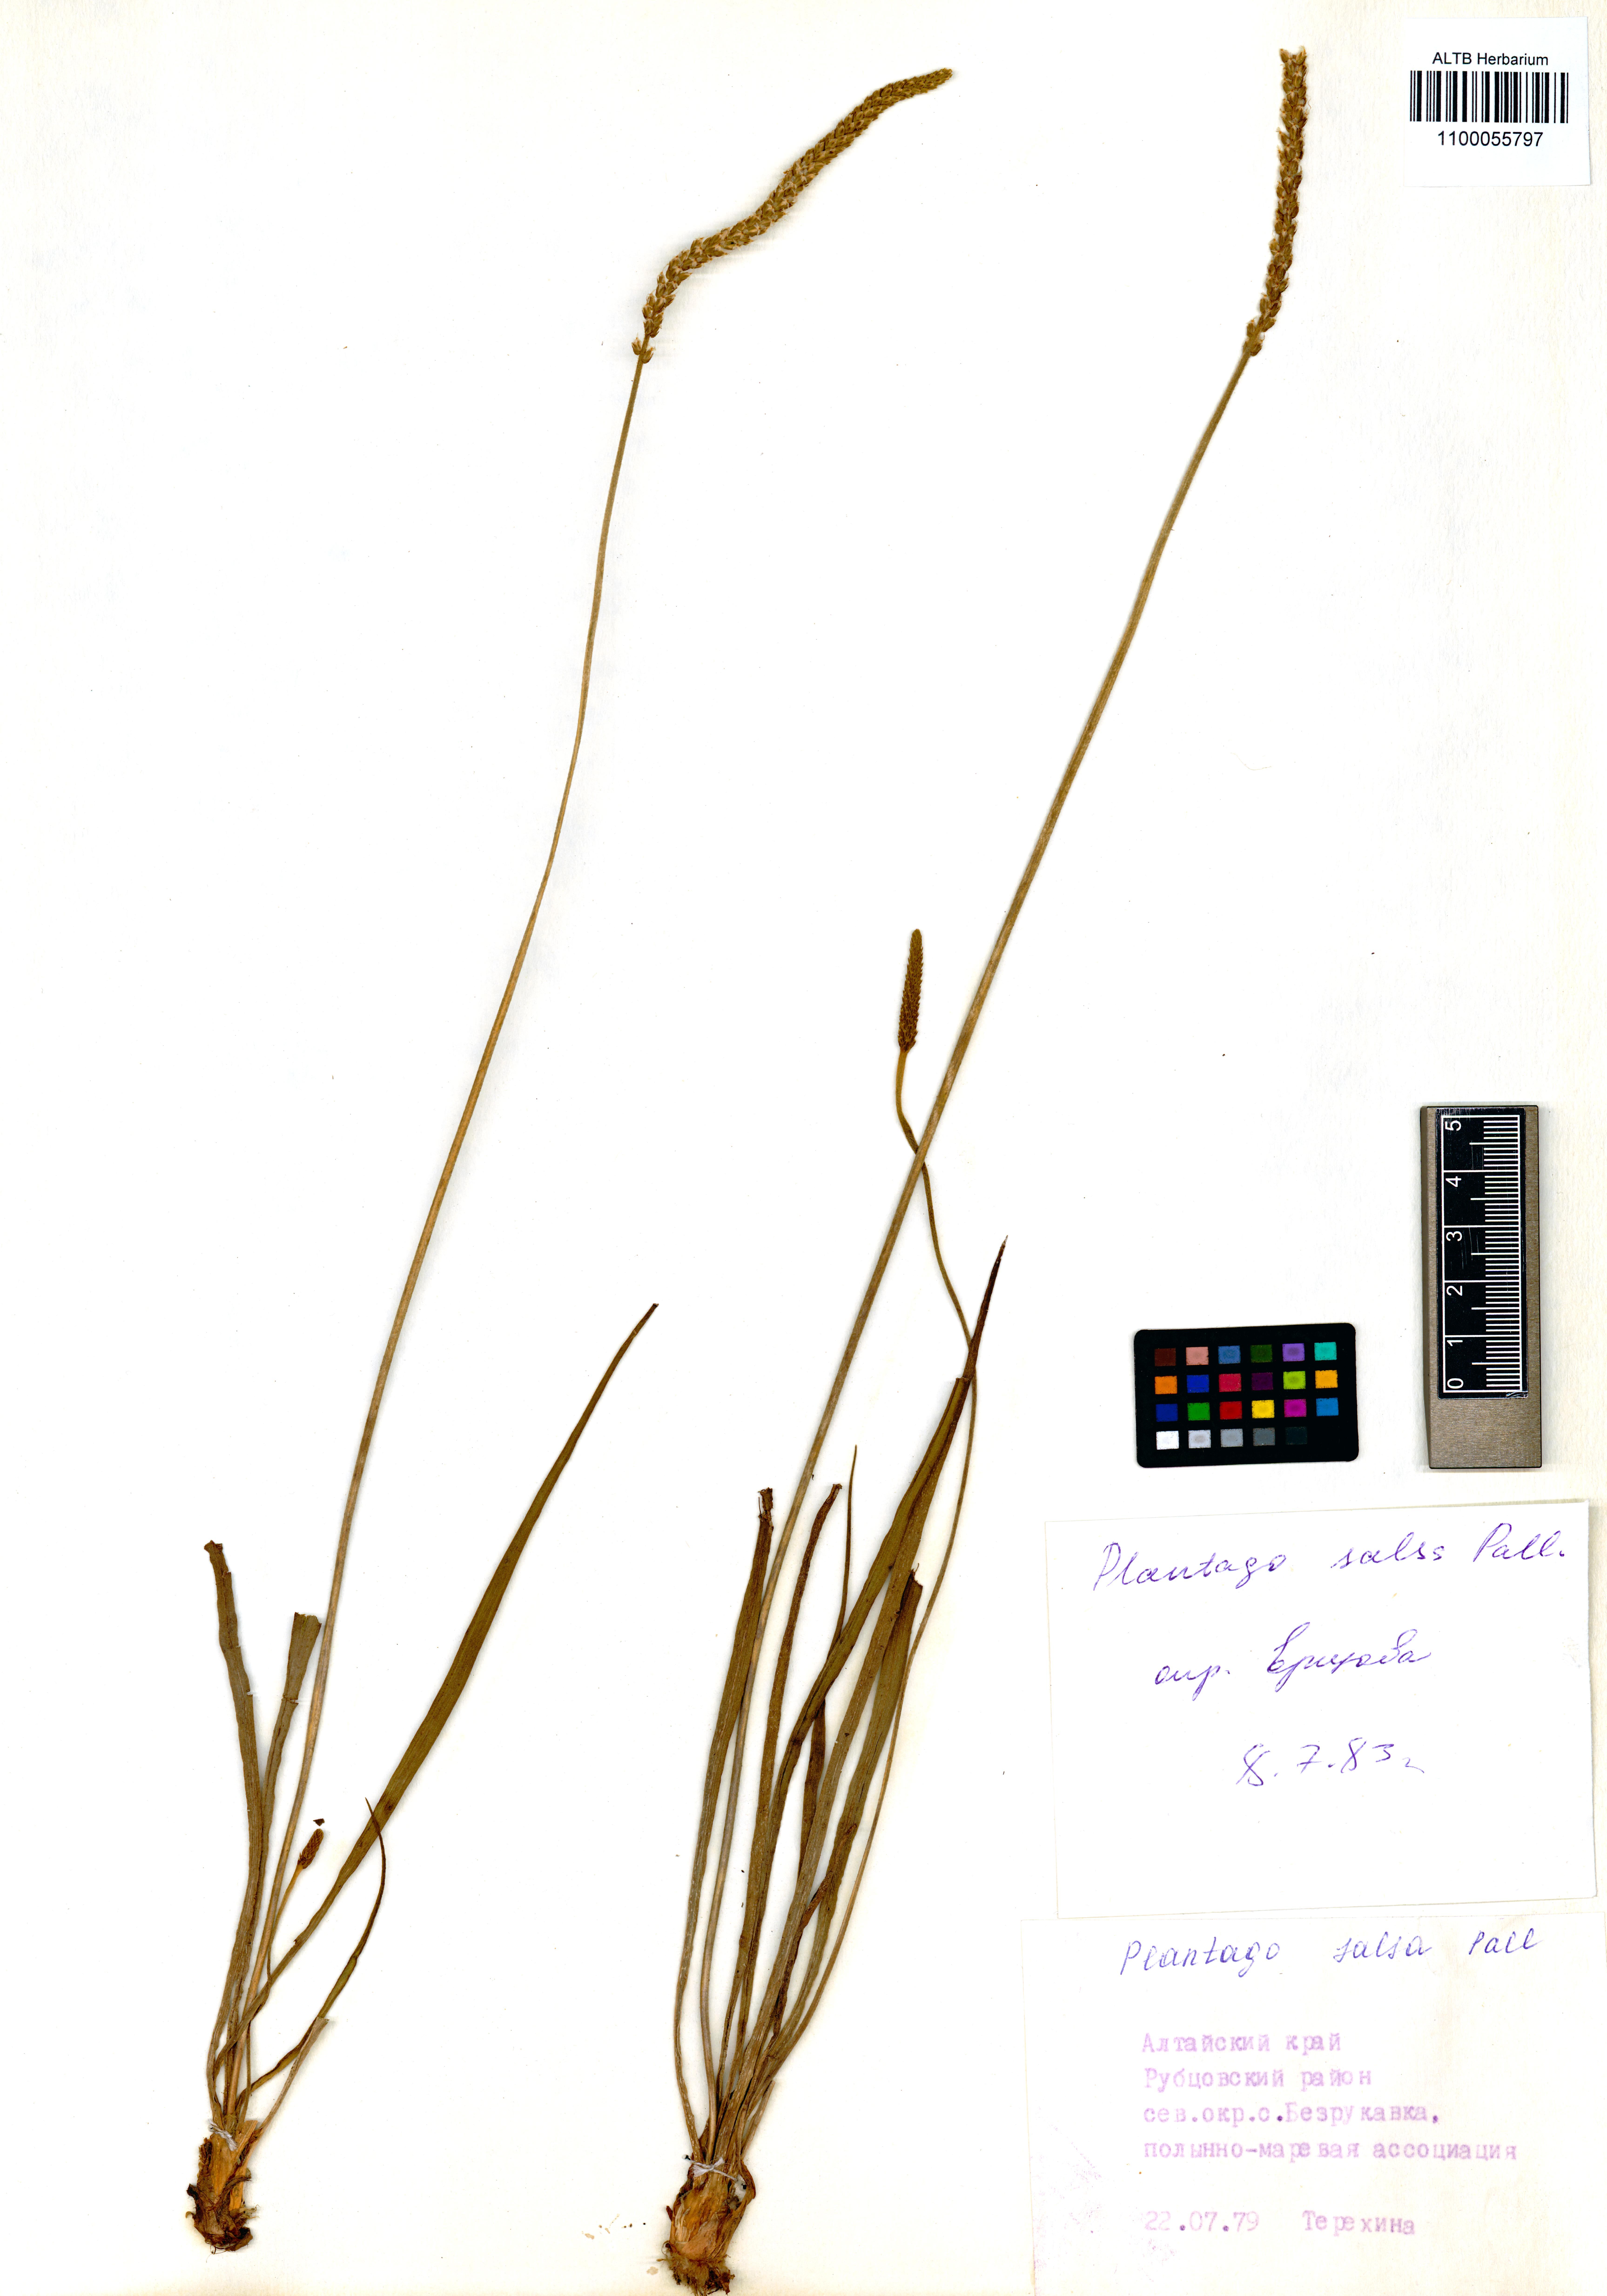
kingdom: Plantae
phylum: Tracheophyta
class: Magnoliopsida
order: Lamiales
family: Plantaginaceae
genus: Plantago
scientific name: Plantago salsa
